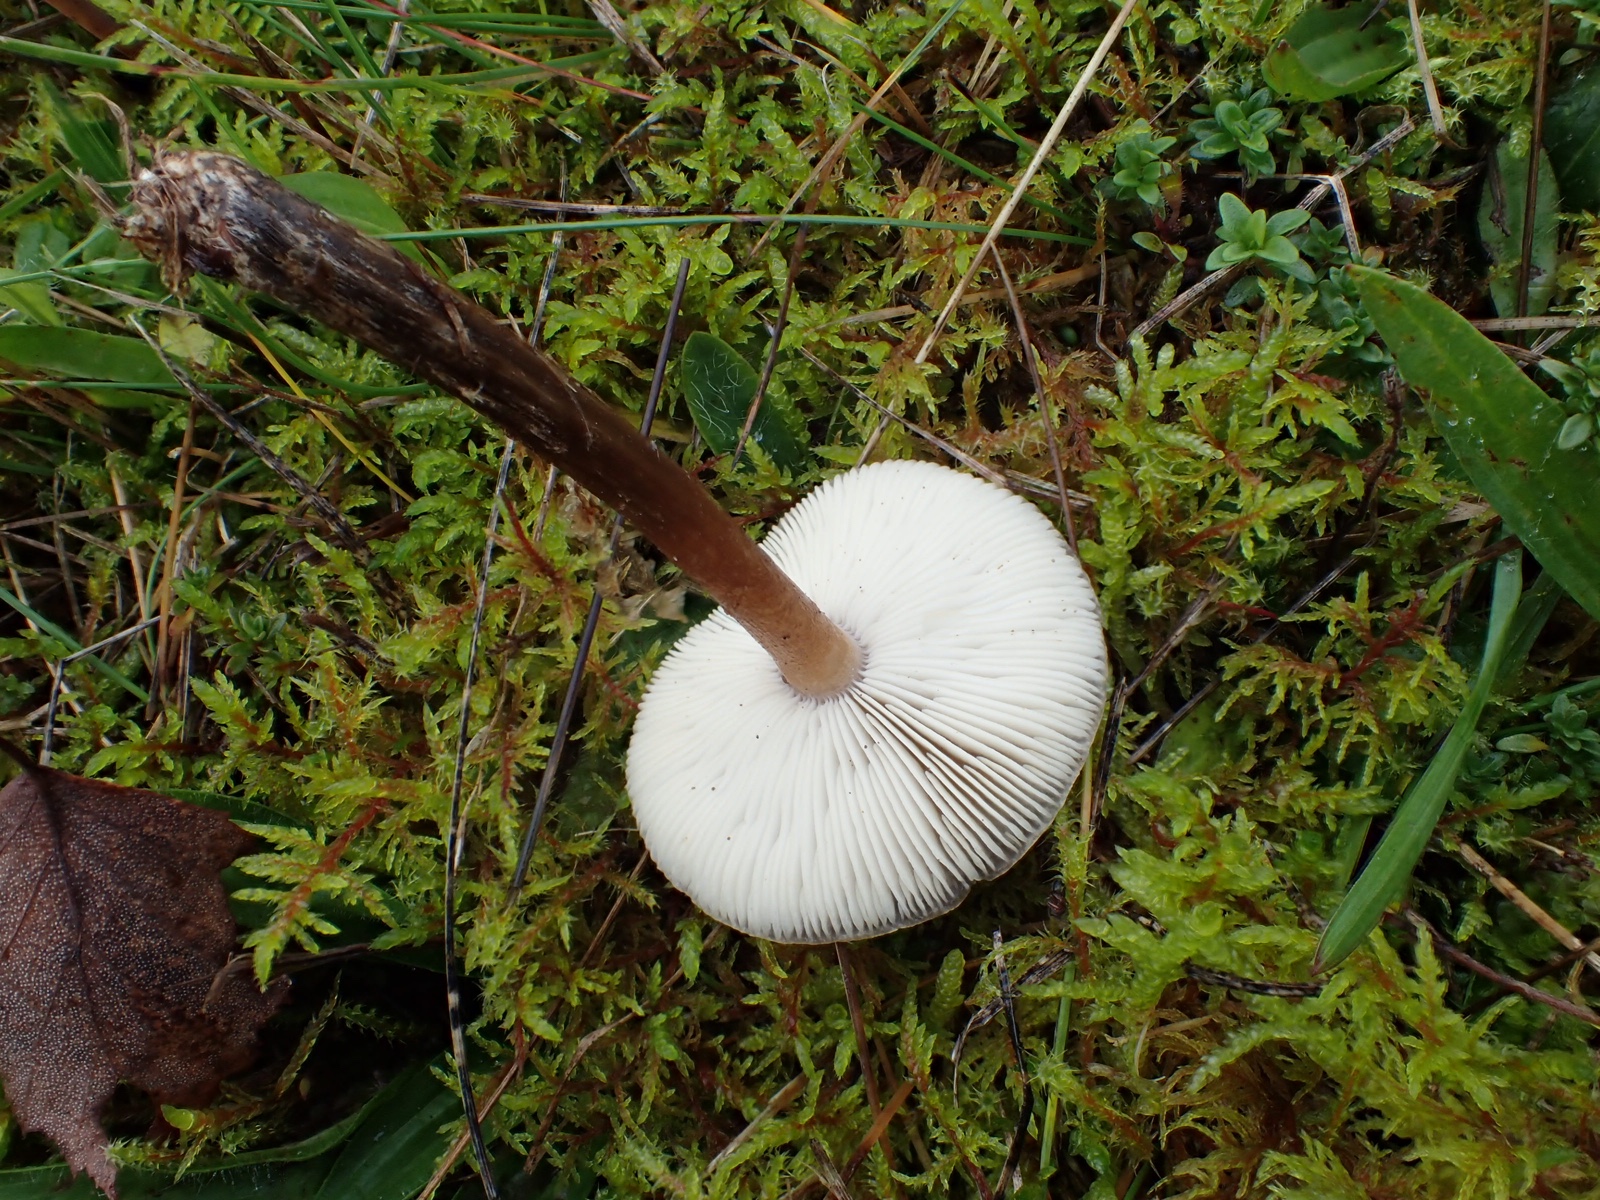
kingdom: Fungi
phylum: Basidiomycota
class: Agaricomycetes
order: Agaricales
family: Tricholomataceae
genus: Melanoleuca
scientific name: Melanoleuca
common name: munkehat
